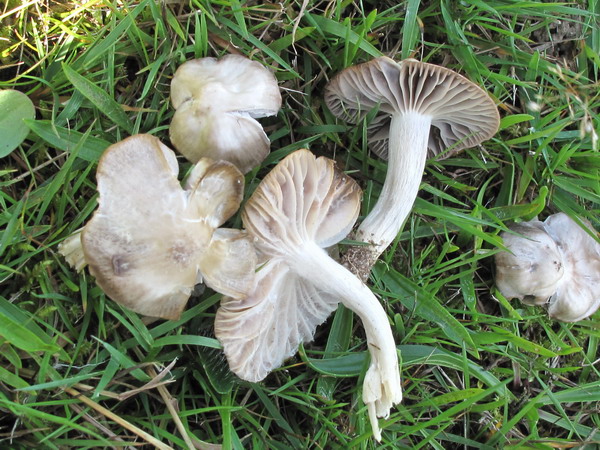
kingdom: Fungi
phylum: Basidiomycota
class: Agaricomycetes
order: Agaricales
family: Hygrophoraceae
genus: Cuphophyllus
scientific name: Cuphophyllus flavipes
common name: gulfodet vokshat
